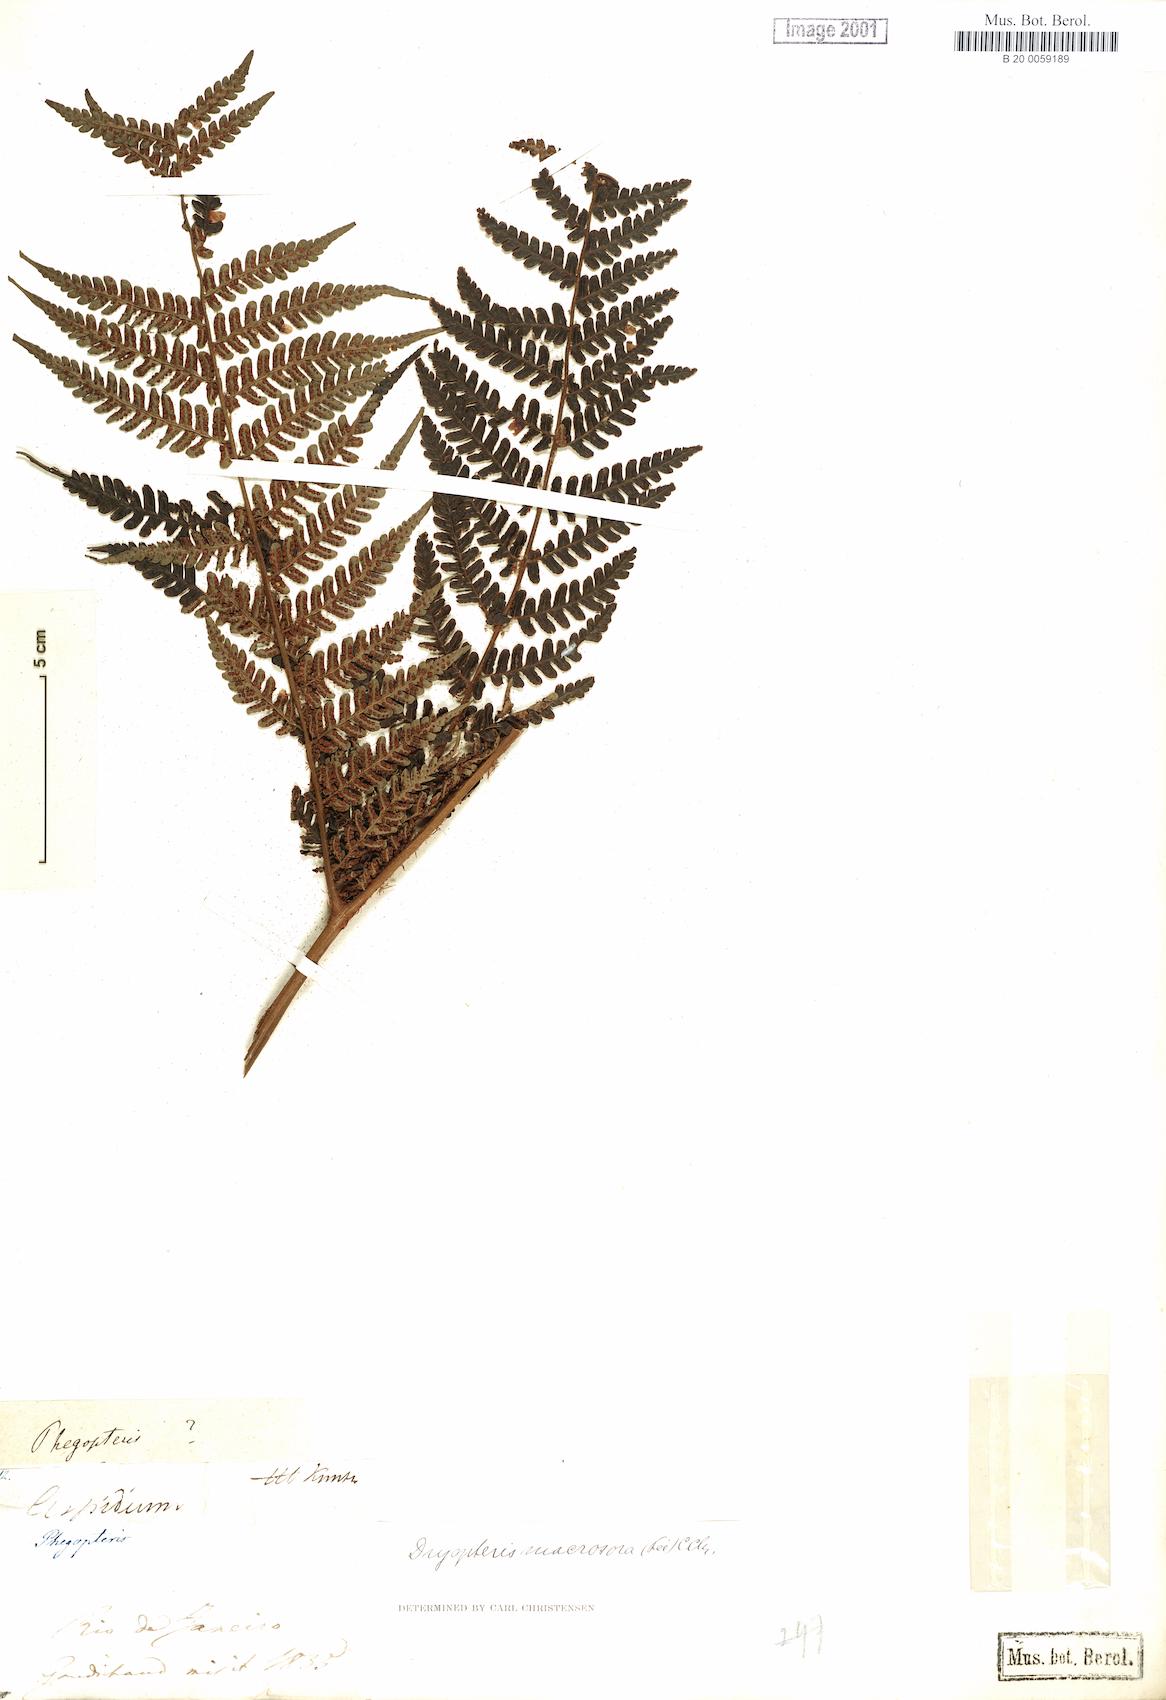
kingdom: Plantae
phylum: Tracheophyta
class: Polypodiopsida
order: Polypodiales
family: Dryopteridaceae
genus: Megalastrum
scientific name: Megalastrum inaequale
